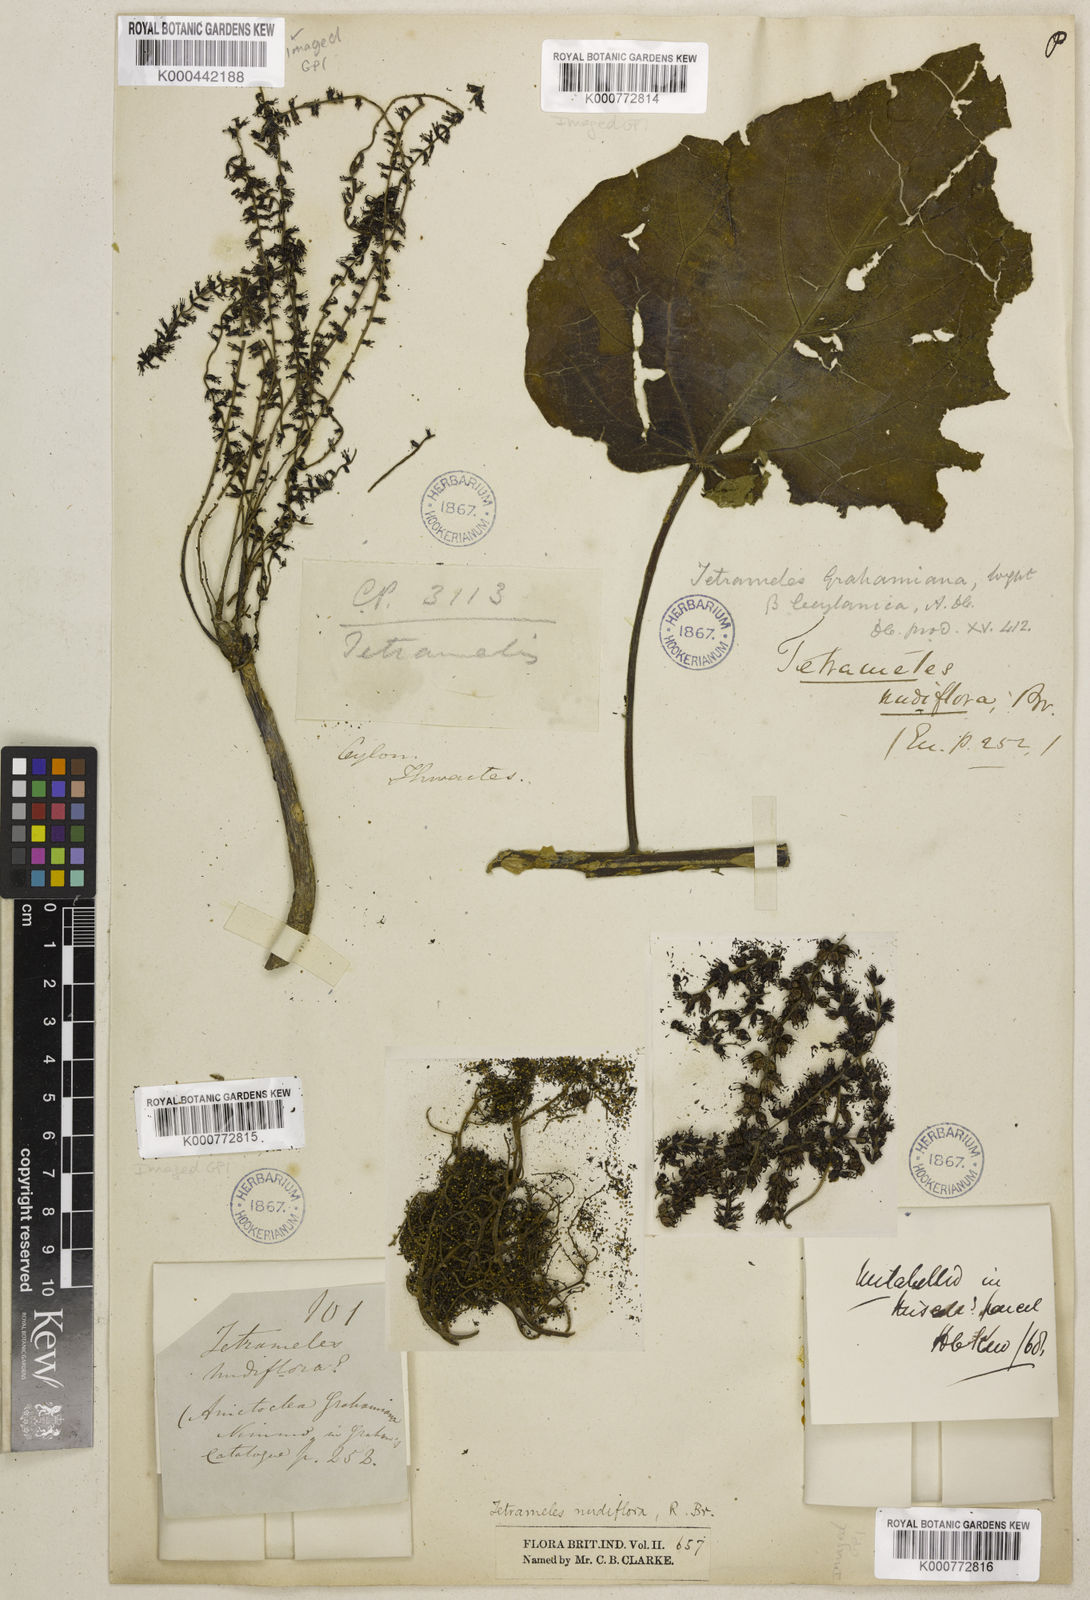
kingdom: Plantae
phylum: Tracheophyta
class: Magnoliopsida
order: Cucurbitales
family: Tetramelaceae
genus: Tetrameles
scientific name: Tetrameles nudiflora
